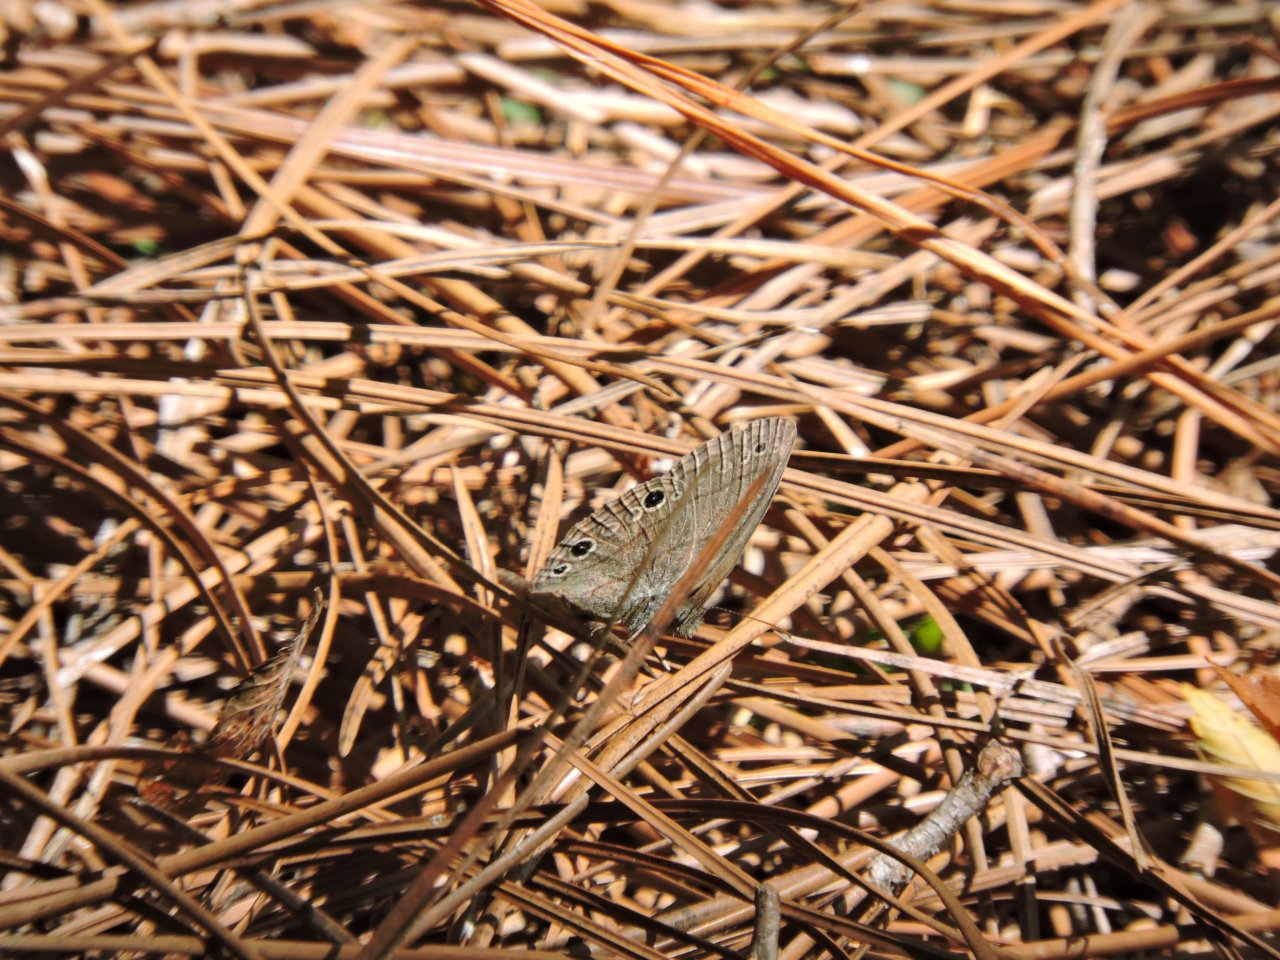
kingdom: Animalia
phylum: Arthropoda
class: Insecta
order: Lepidoptera
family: Nymphalidae
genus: Hermeuptychia
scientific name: Hermeuptychia hermes
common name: Carolina Satyr
